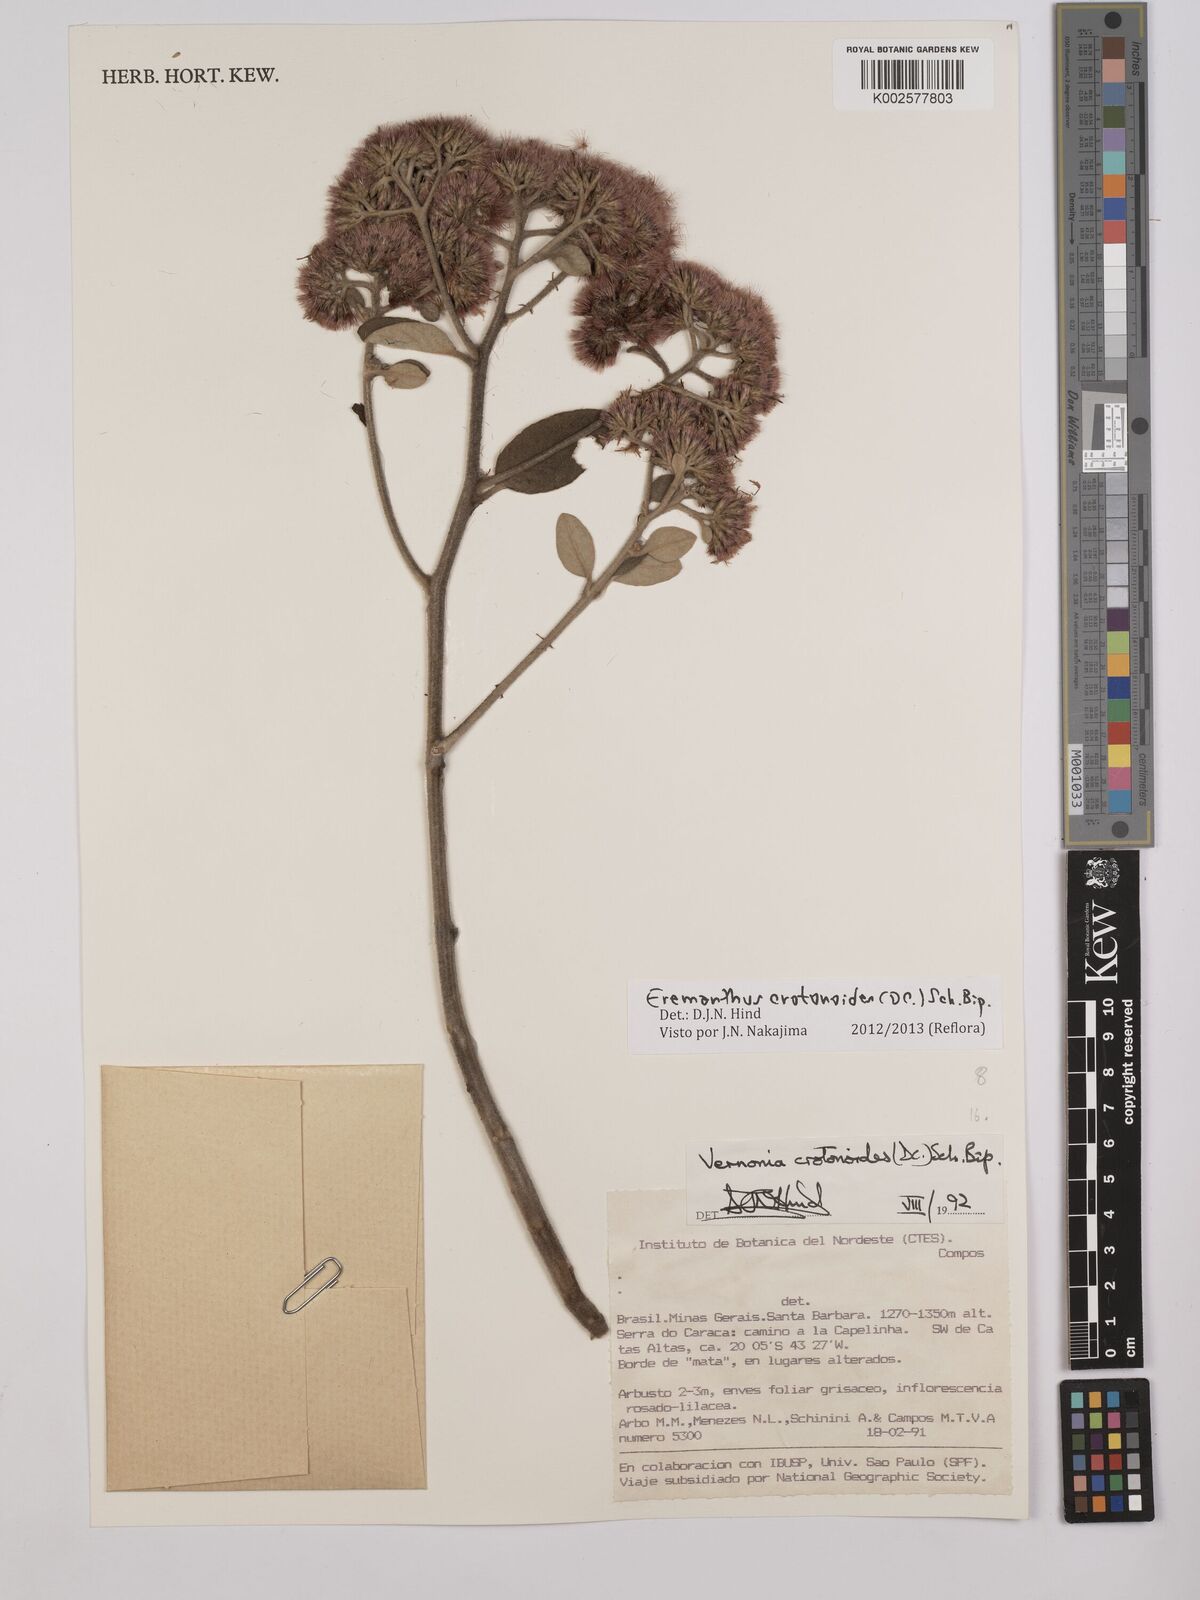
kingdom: Plantae
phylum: Tracheophyta
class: Magnoliopsida
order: Asterales
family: Asteraceae
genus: Eremanthus
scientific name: Eremanthus crotonoides
